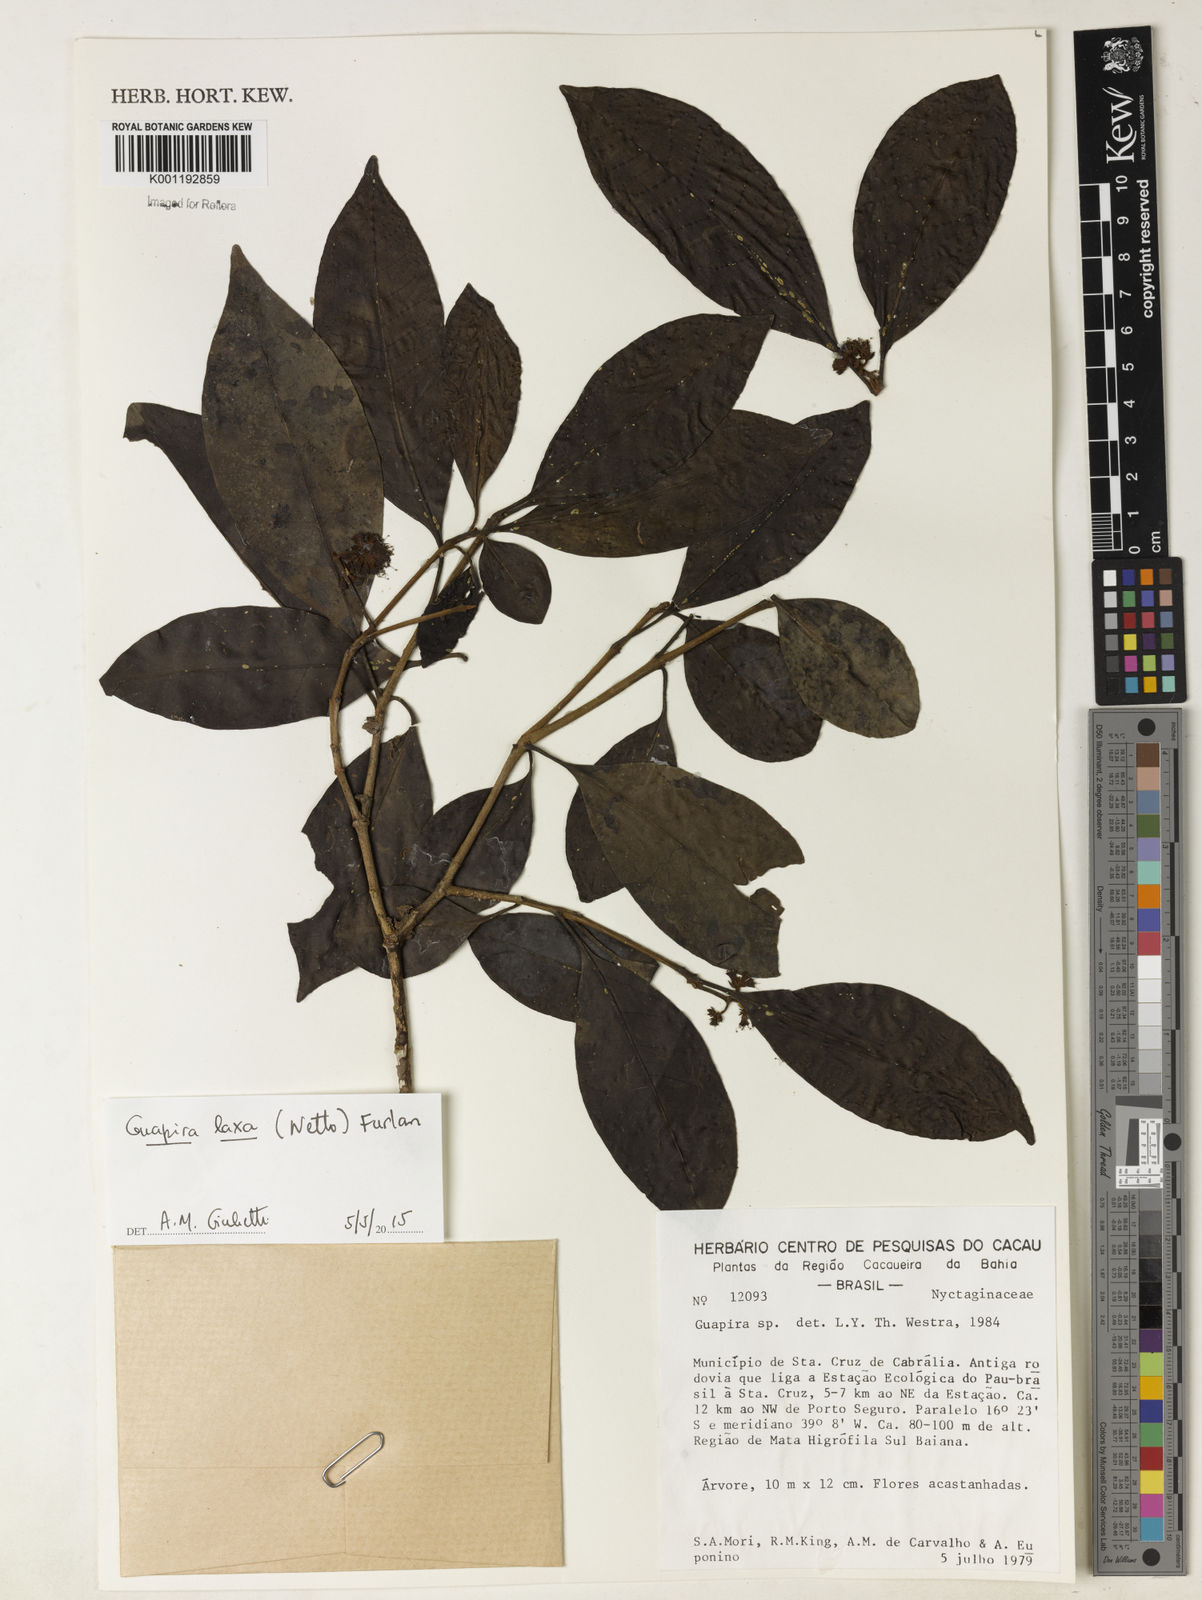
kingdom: Plantae
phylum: Tracheophyta
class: Magnoliopsida
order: Caryophyllales
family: Nyctaginaceae
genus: Guapira
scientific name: Guapira laxa
